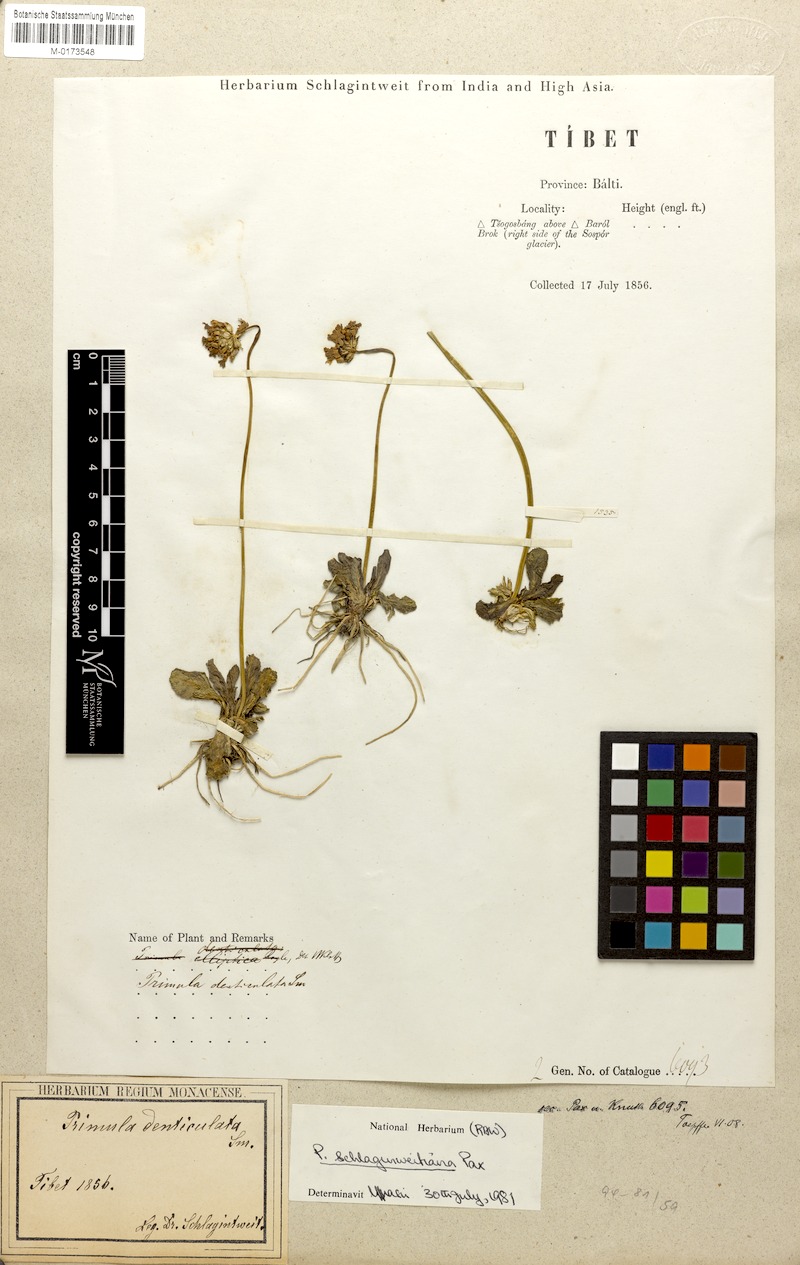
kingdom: Plantae
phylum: Tracheophyta
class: Magnoliopsida
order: Ericales
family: Primulaceae
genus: Primula
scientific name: Primula schlagintweitiana
